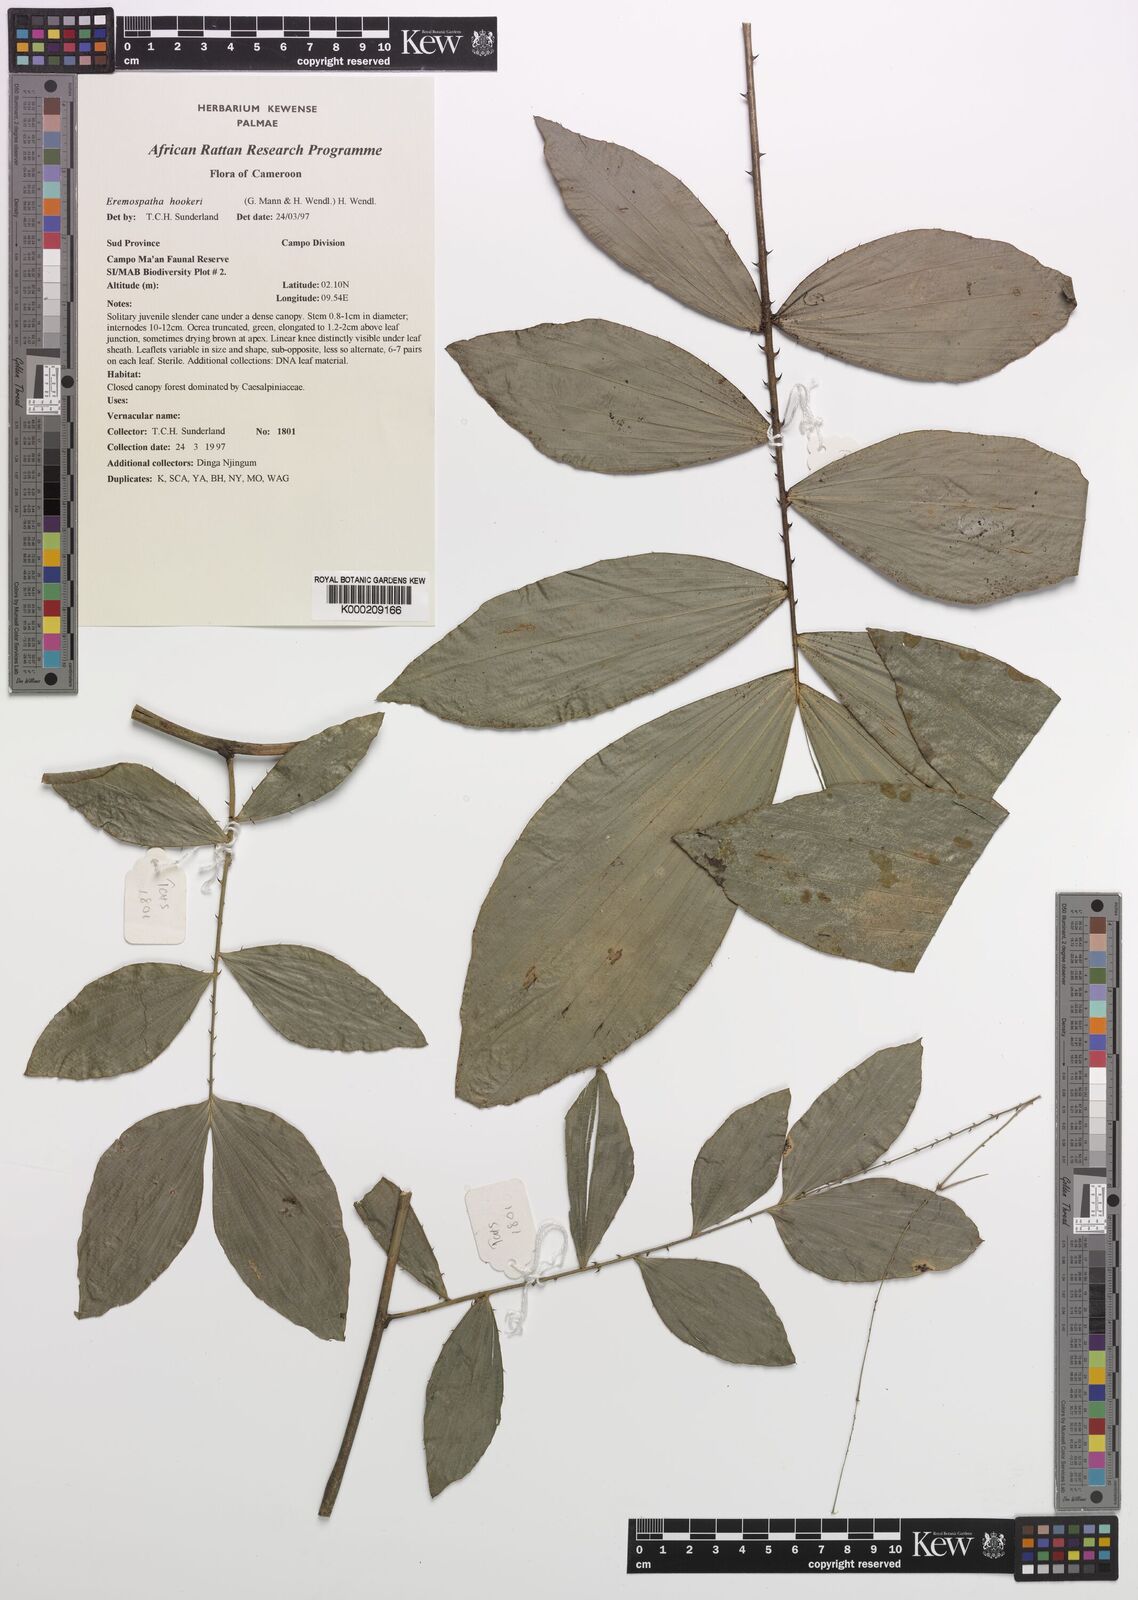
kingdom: Plantae
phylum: Tracheophyta
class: Liliopsida
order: Arecales
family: Arecaceae
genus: Eremospatha
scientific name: Eremospatha hookeri
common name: Rattan
